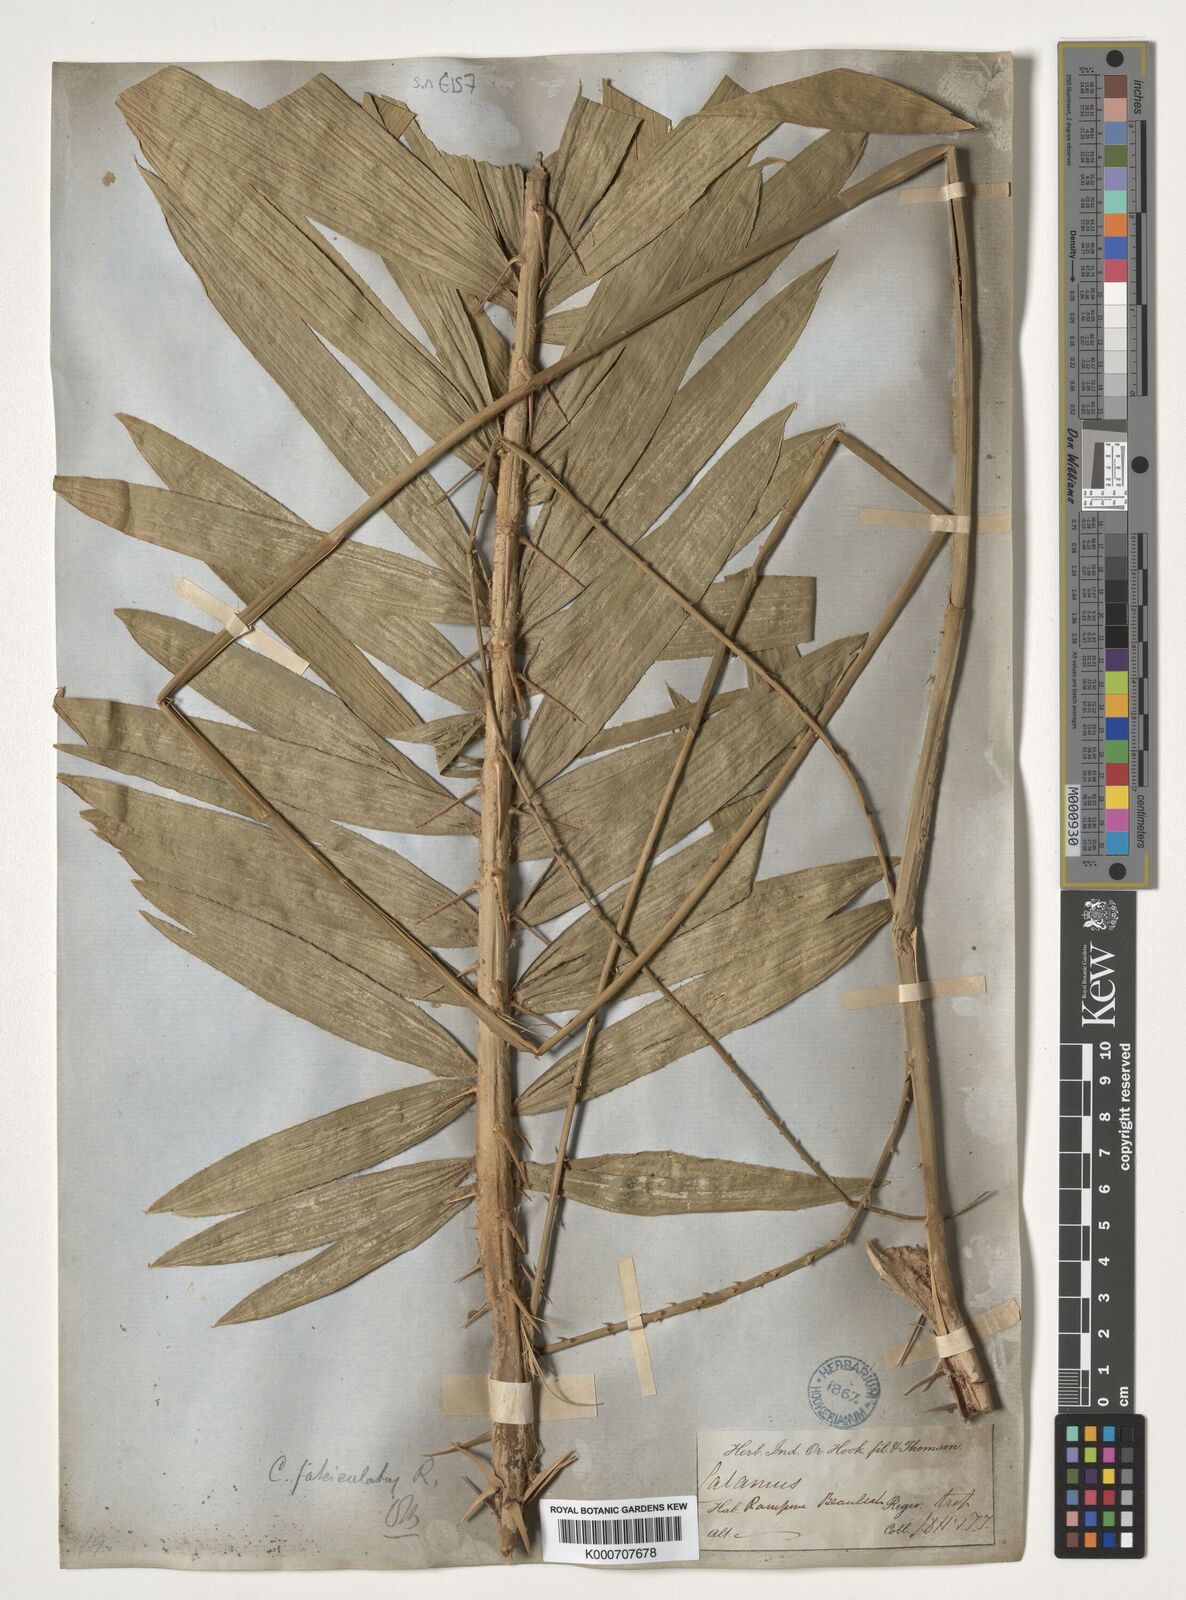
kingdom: Plantae
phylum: Tracheophyta
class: Liliopsida
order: Arecales
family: Arecaceae
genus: Calamus
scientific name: Calamus viminalis
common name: Osier-like rattan palm
